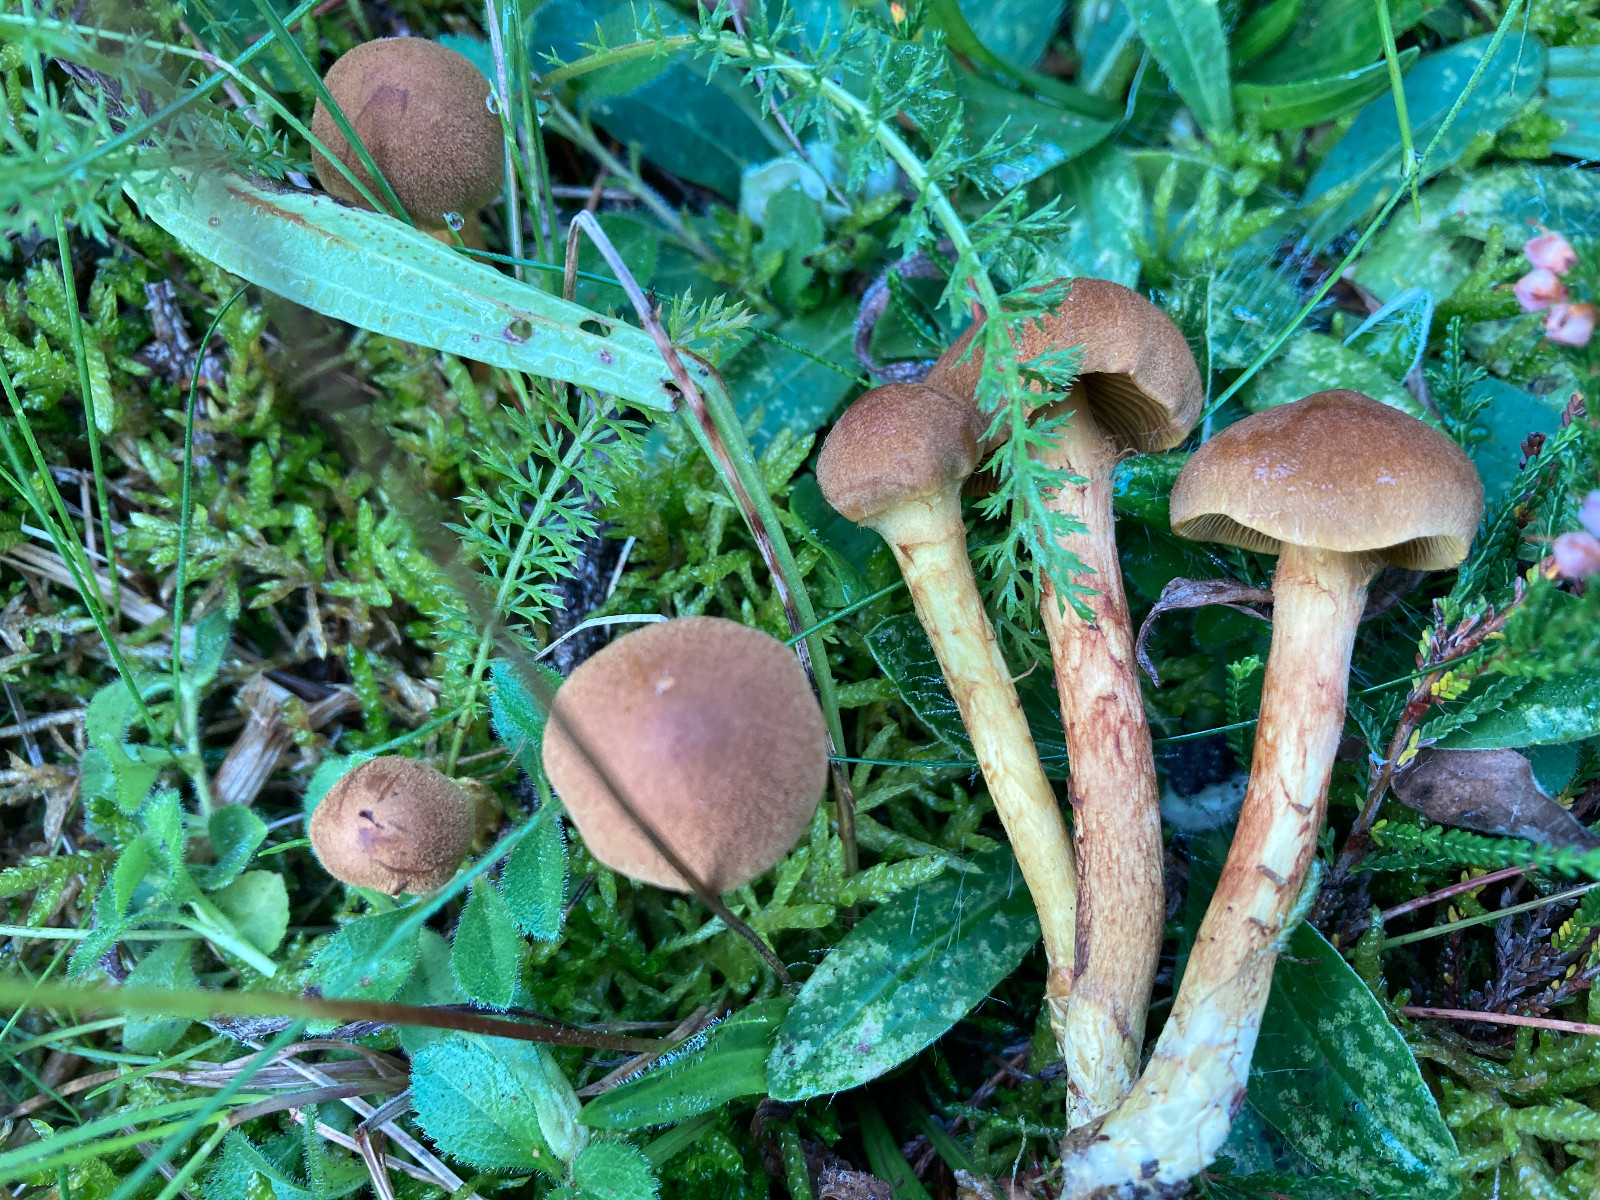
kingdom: Fungi
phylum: Basidiomycota
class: Agaricomycetes
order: Agaricales
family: Cortinariaceae
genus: Cortinarius
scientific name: Cortinarius
